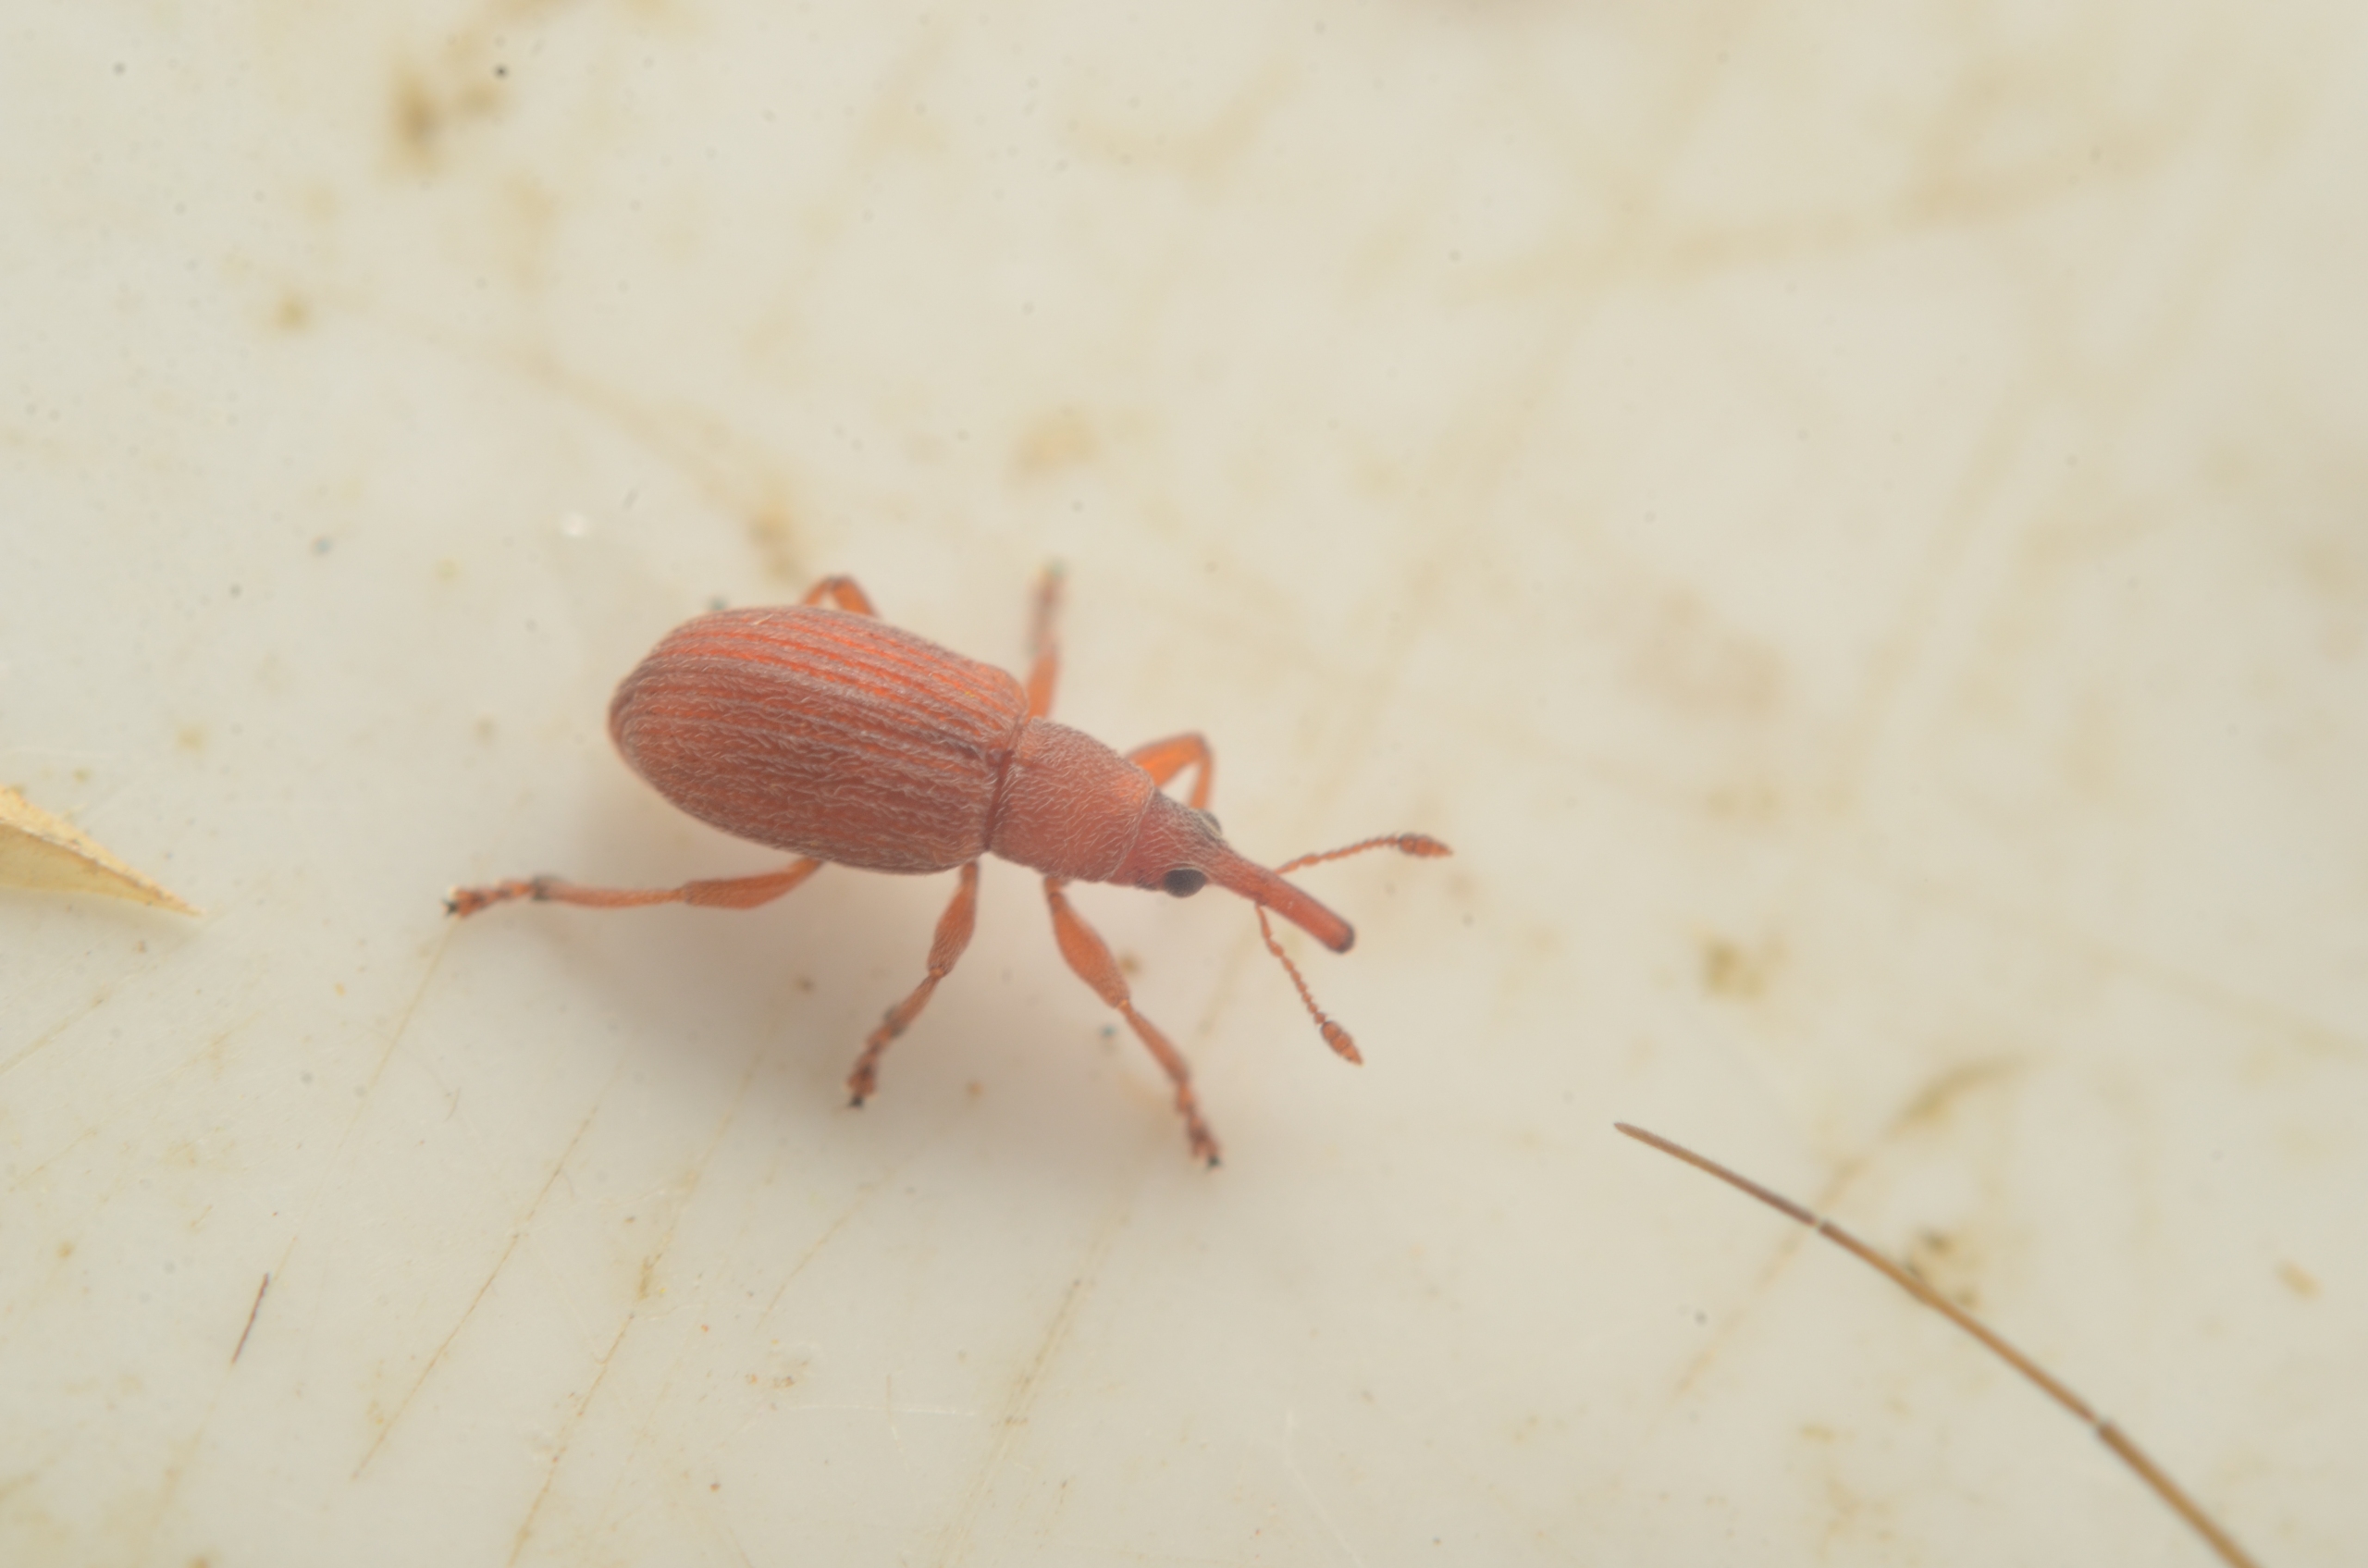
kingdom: Animalia
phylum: Arthropoda
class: Insecta
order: Coleoptera
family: Apionidae
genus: Apion
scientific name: Apion rubiginosum
